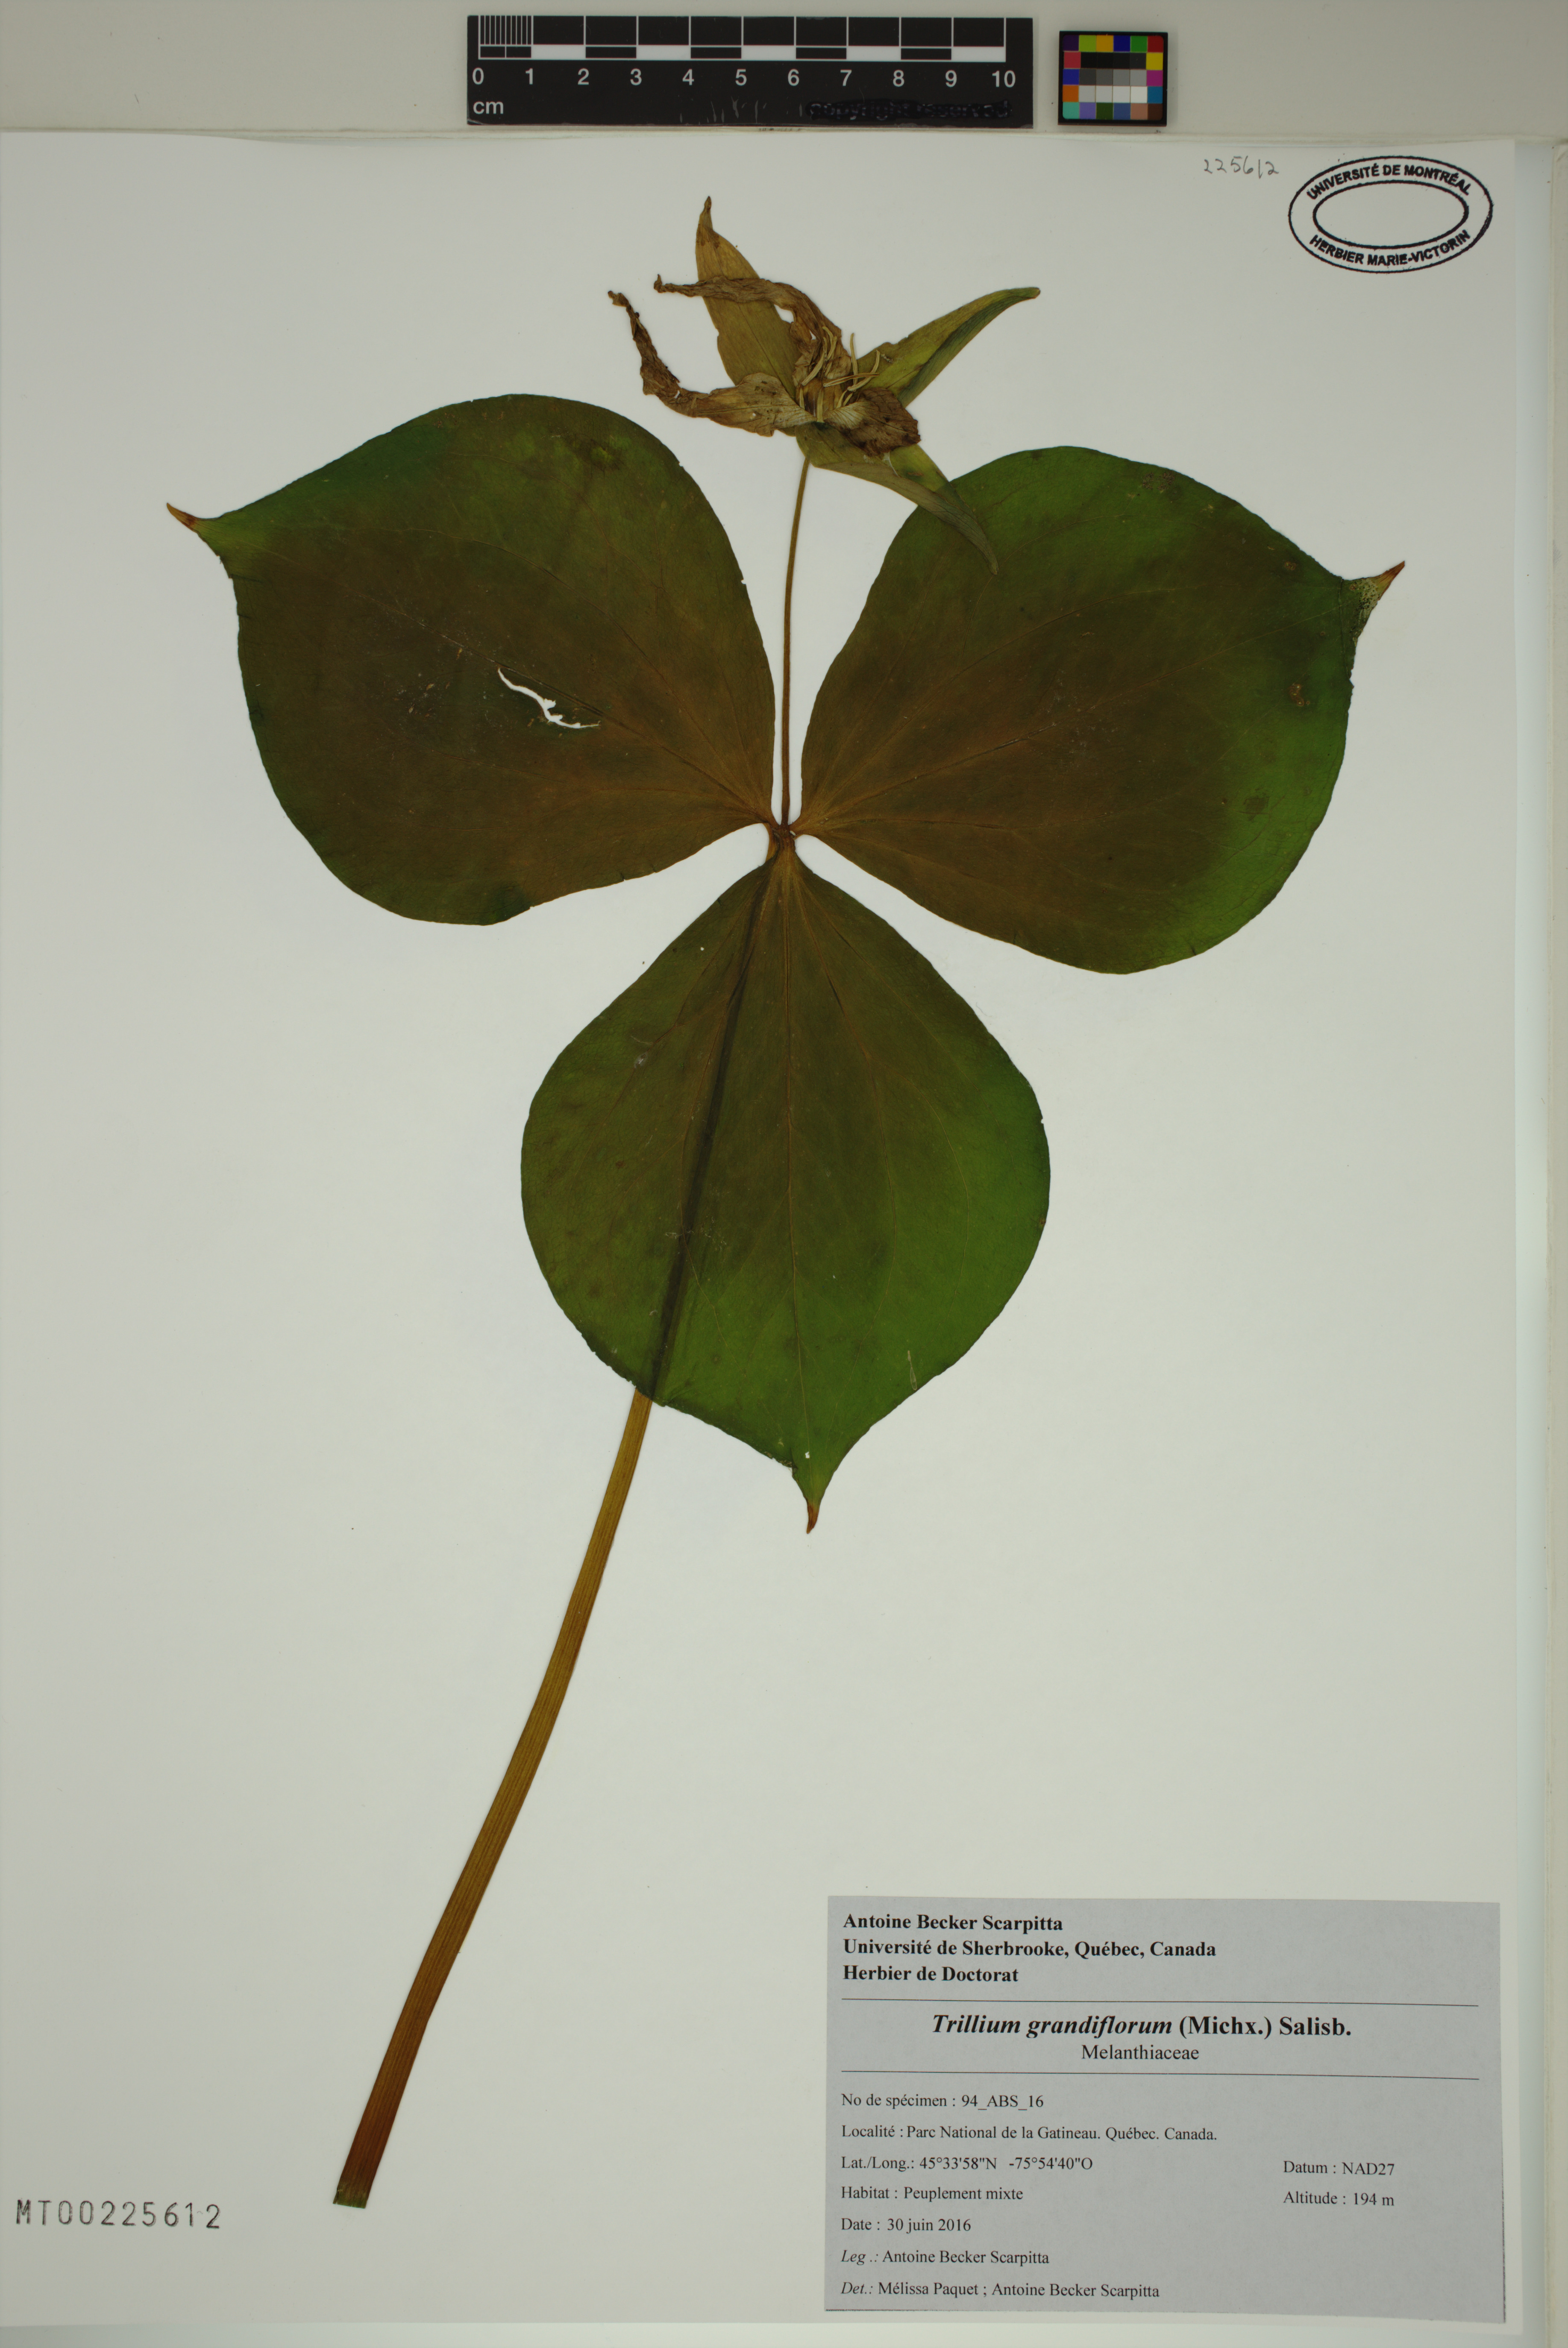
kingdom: Plantae
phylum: Tracheophyta
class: Liliopsida
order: Liliales
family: Melanthiaceae
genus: Trillium
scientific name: Trillium grandiflorum
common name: Great white trillium
